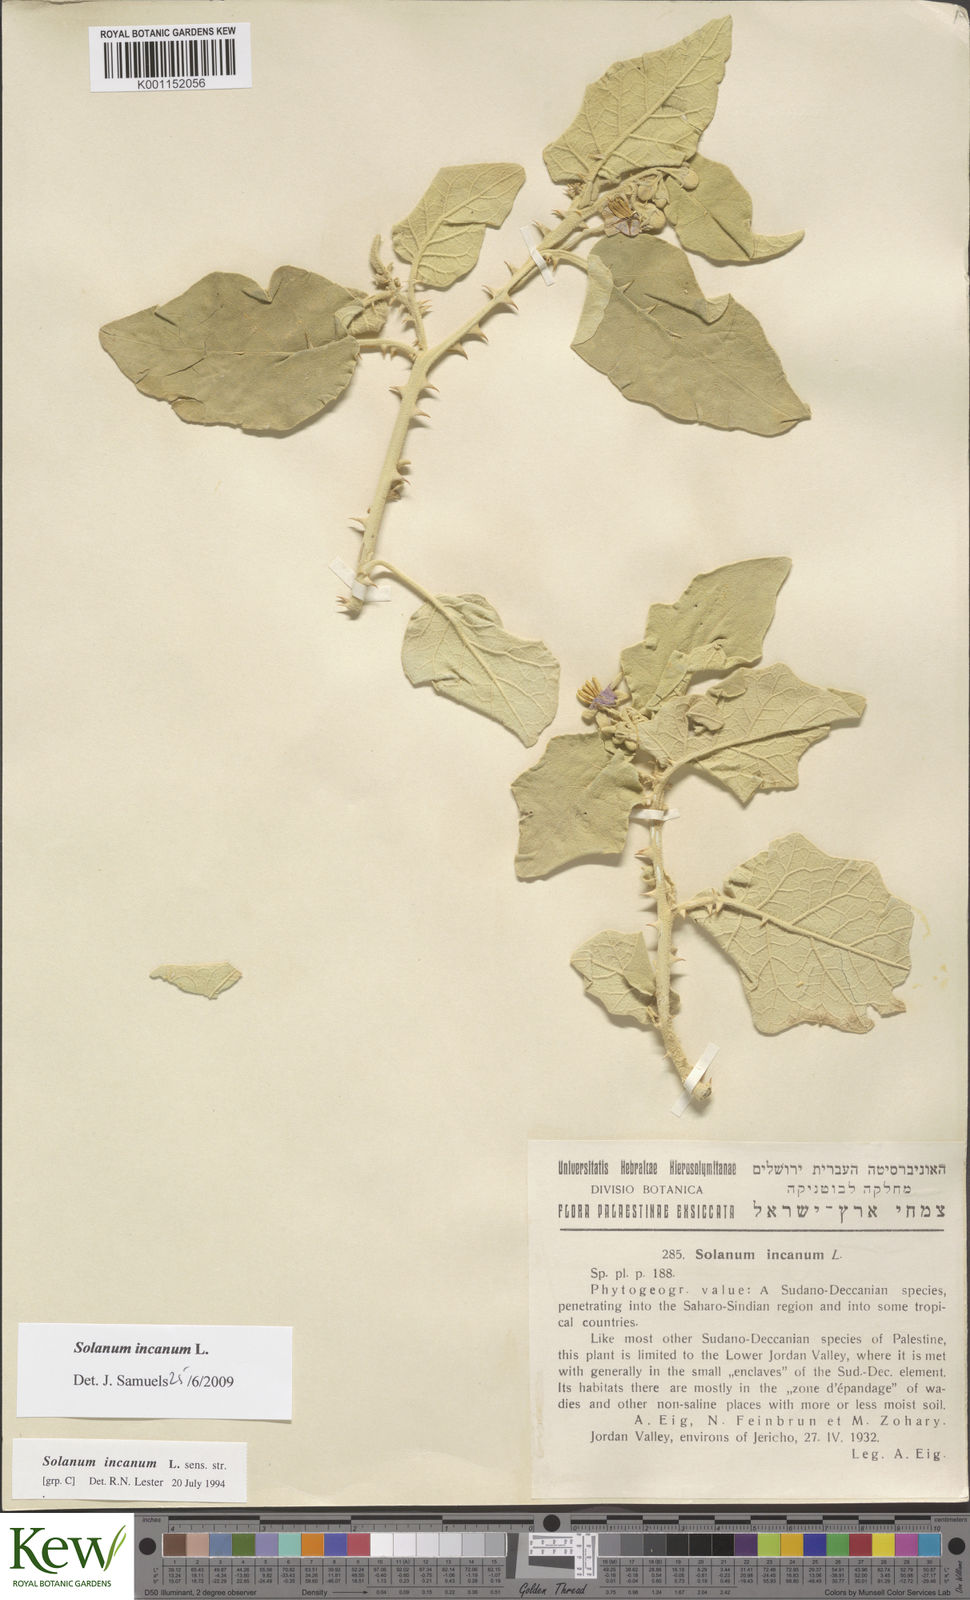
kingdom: Plantae
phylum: Tracheophyta
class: Magnoliopsida
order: Solanales
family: Solanaceae
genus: Solanum
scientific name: Solanum incanum
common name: Bitter apple
